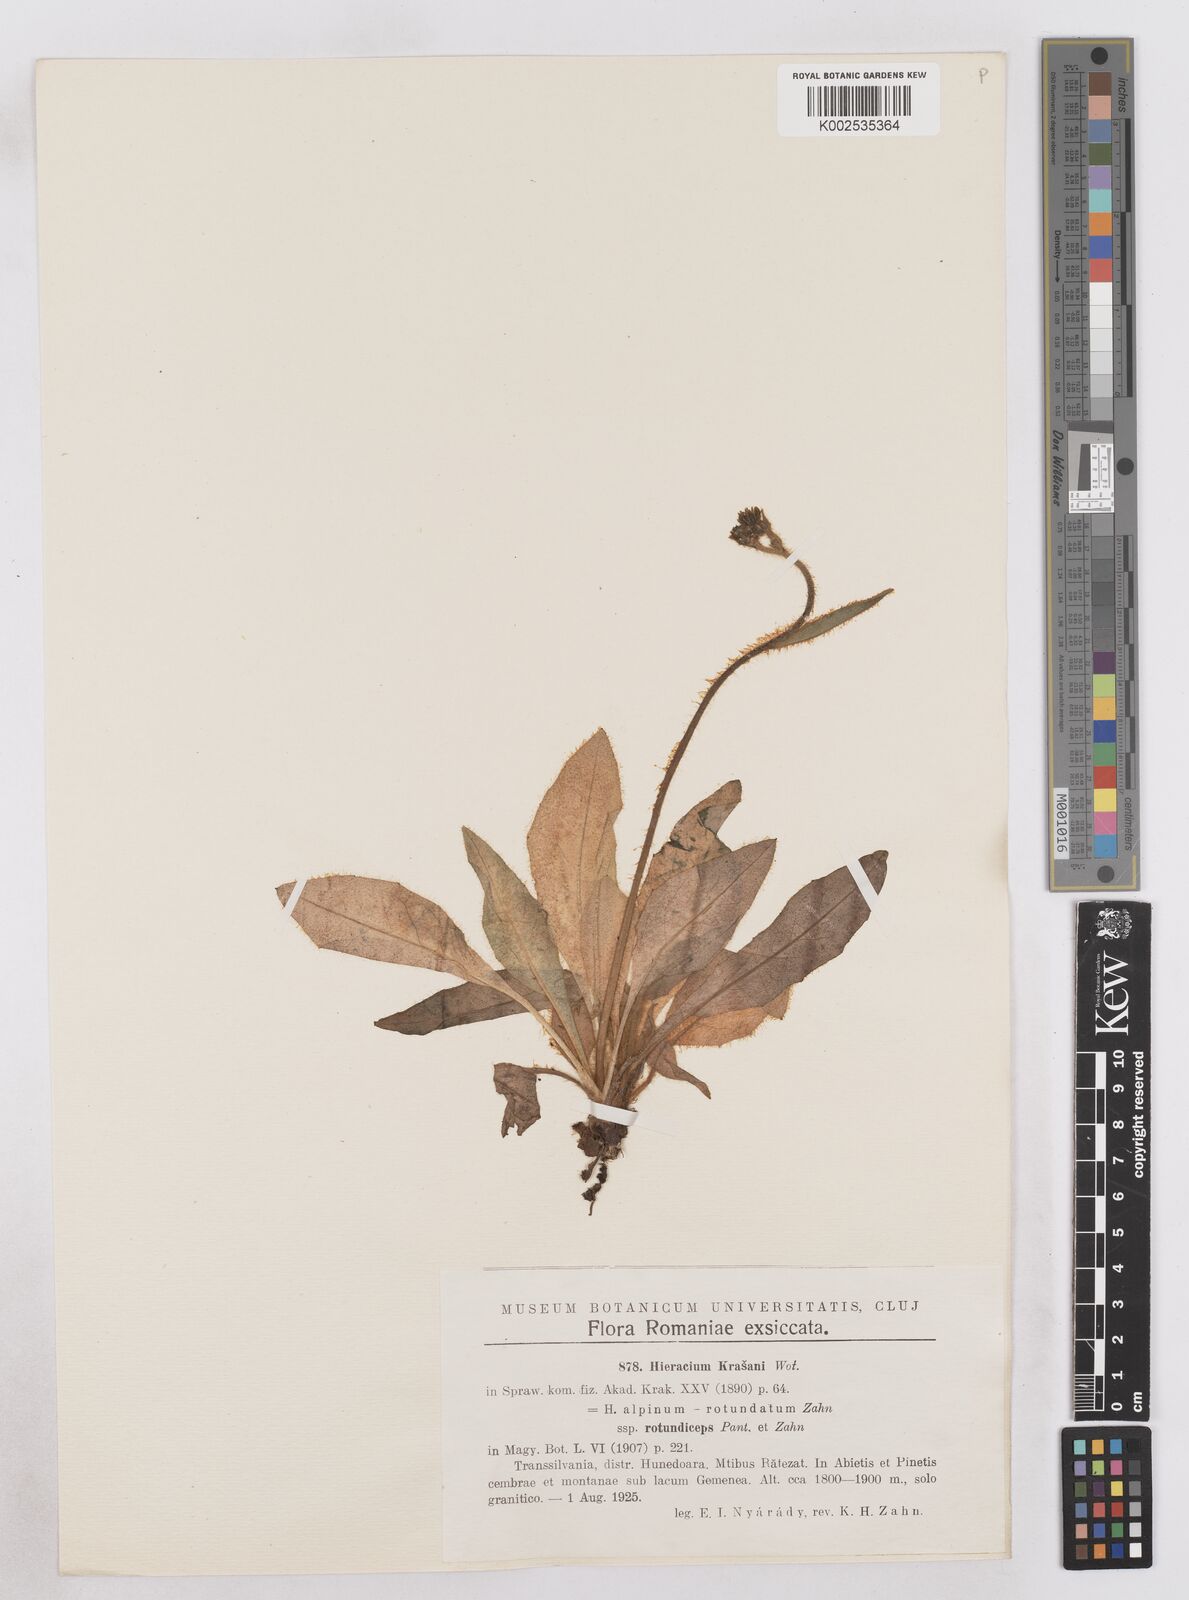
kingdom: Plantae
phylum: Tracheophyta
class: Magnoliopsida
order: Asterales
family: Asteraceae
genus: Hieracium
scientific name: Hieracium krasanii
